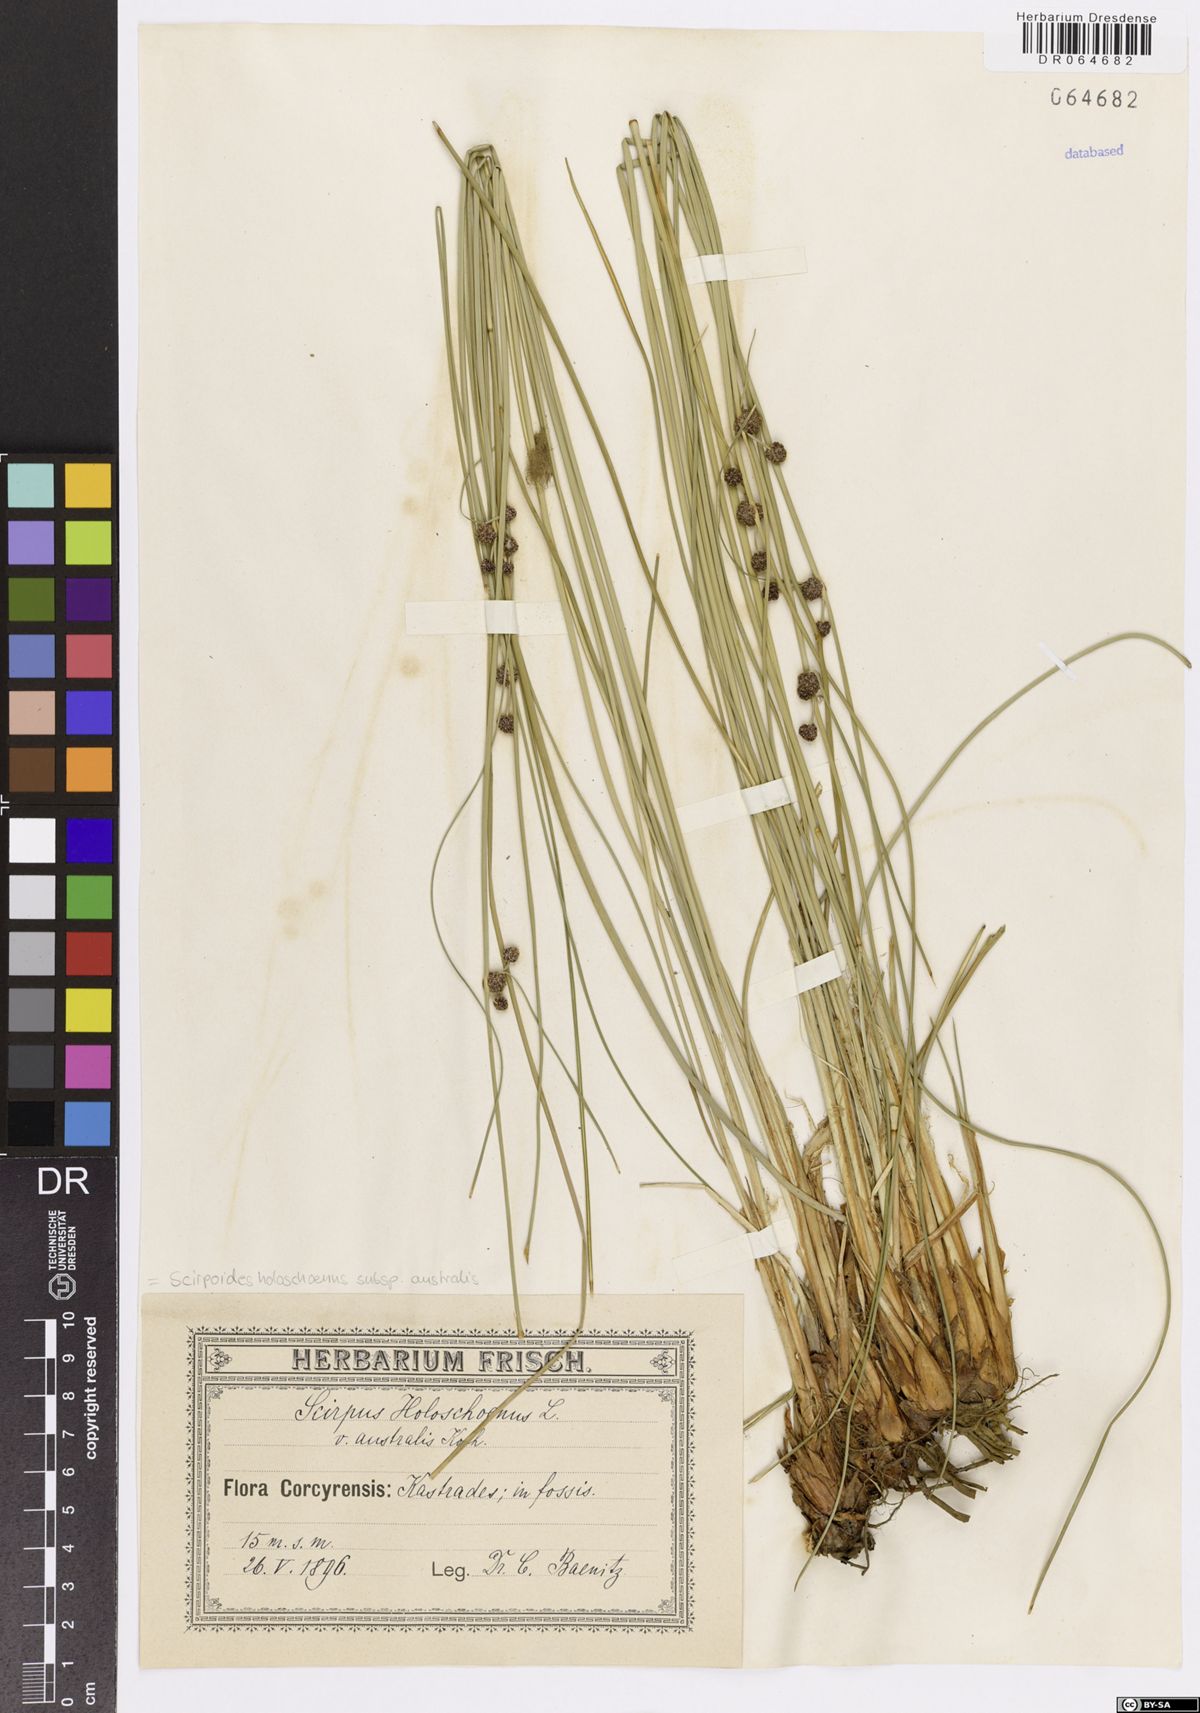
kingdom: Plantae
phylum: Tracheophyta
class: Liliopsida
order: Poales
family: Cyperaceae
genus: Scirpoides
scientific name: Scirpoides holoschoenus
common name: Round-headed club-rush
